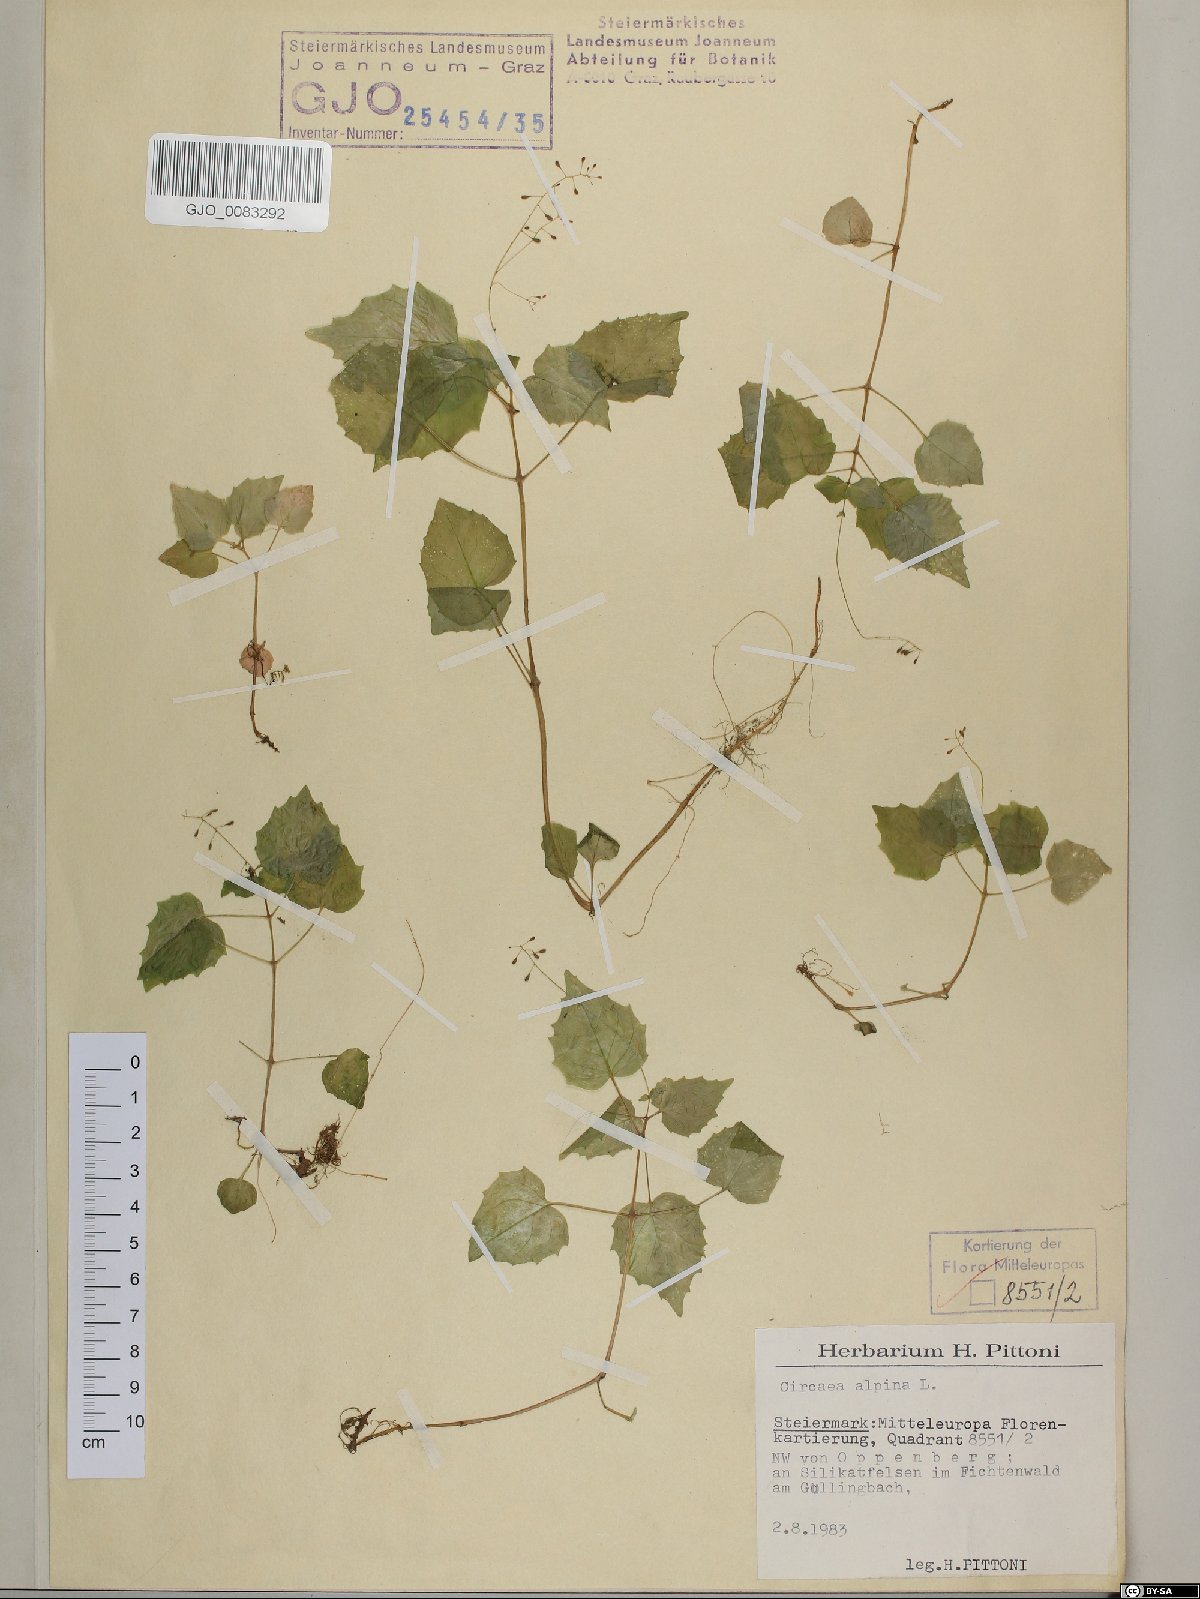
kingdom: Plantae
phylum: Tracheophyta
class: Magnoliopsida
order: Myrtales
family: Onagraceae
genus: Circaea
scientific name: Circaea alpina
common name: Alpine enchanter's-nightshade
